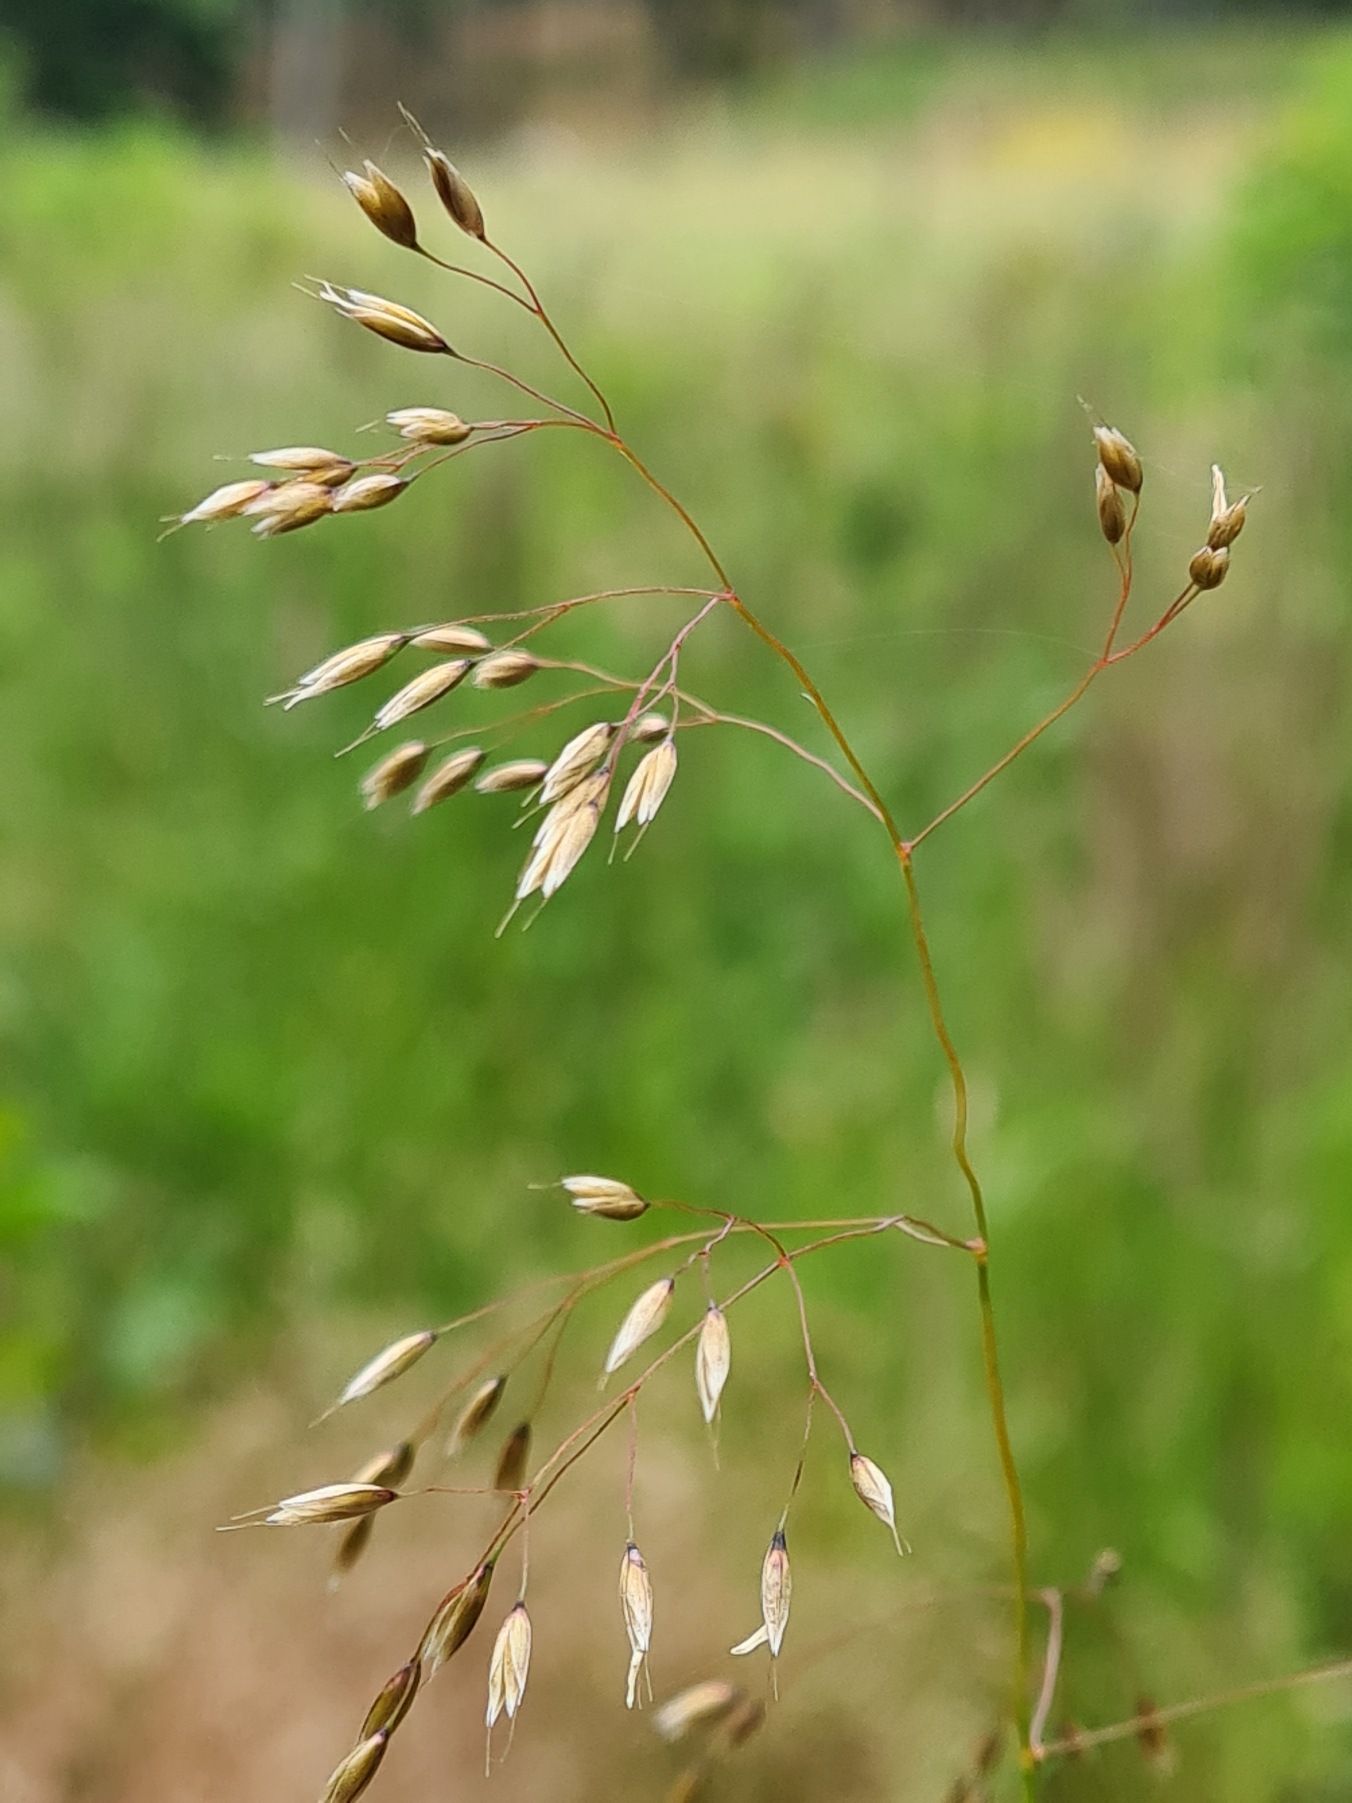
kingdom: Plantae
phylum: Tracheophyta
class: Liliopsida
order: Poales
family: Poaceae
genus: Avenella
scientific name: Avenella flexuosa
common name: Bølget bunke
